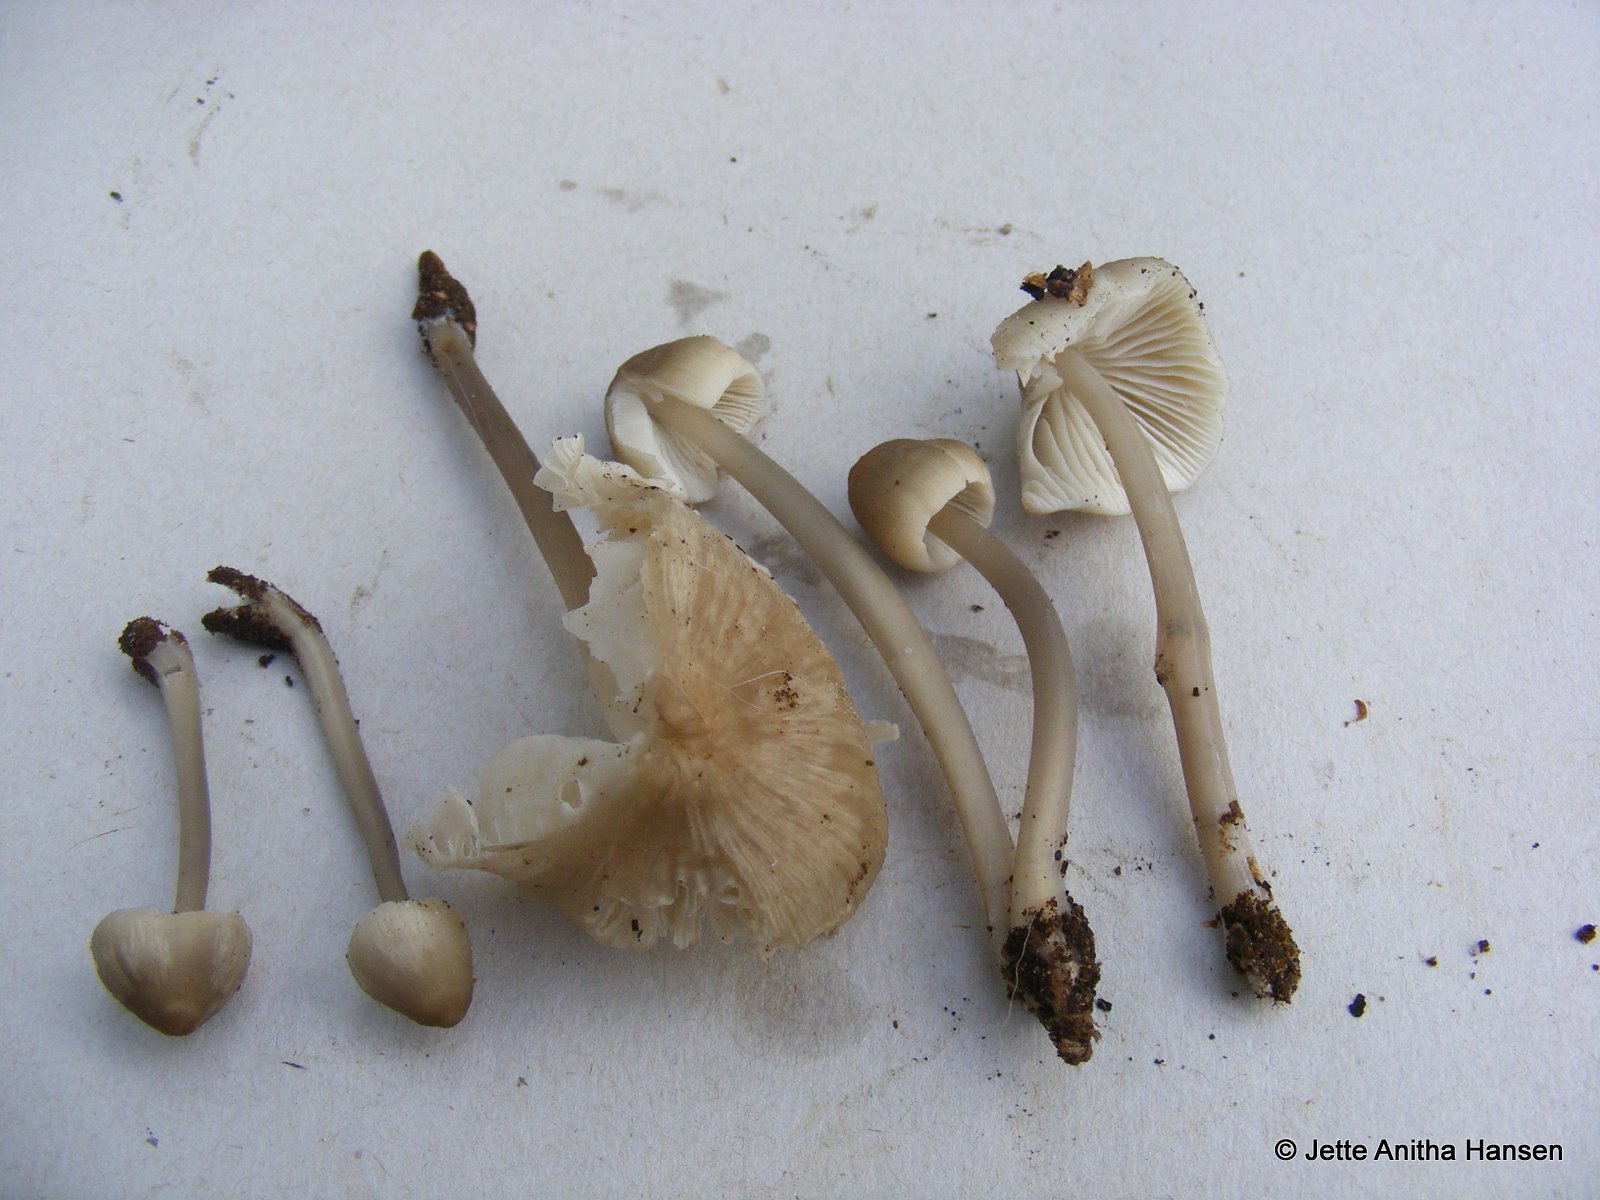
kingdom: Fungi
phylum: Basidiomycota
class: Agaricomycetes
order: Agaricales
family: Mycenaceae
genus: Mycena
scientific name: Mycena galericulata
